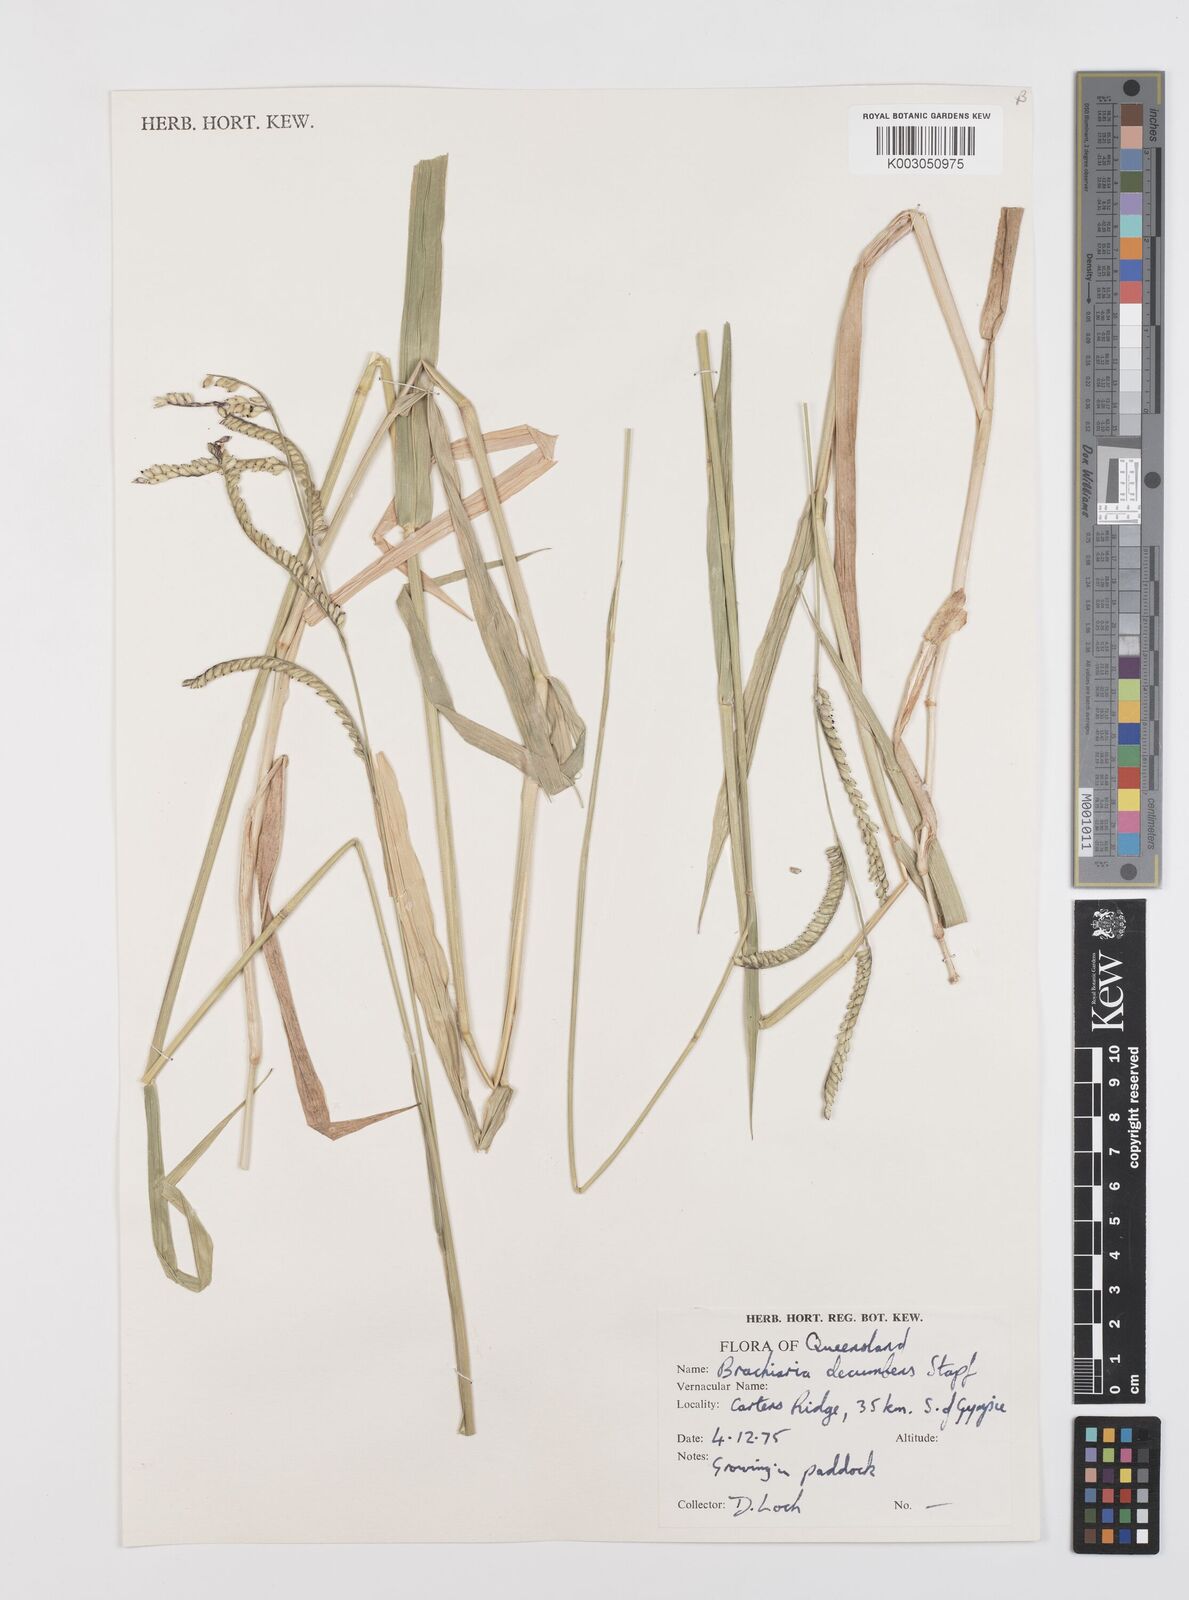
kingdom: Plantae
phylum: Tracheophyta
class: Liliopsida
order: Poales
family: Poaceae
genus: Urochloa
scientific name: Urochloa eminii
